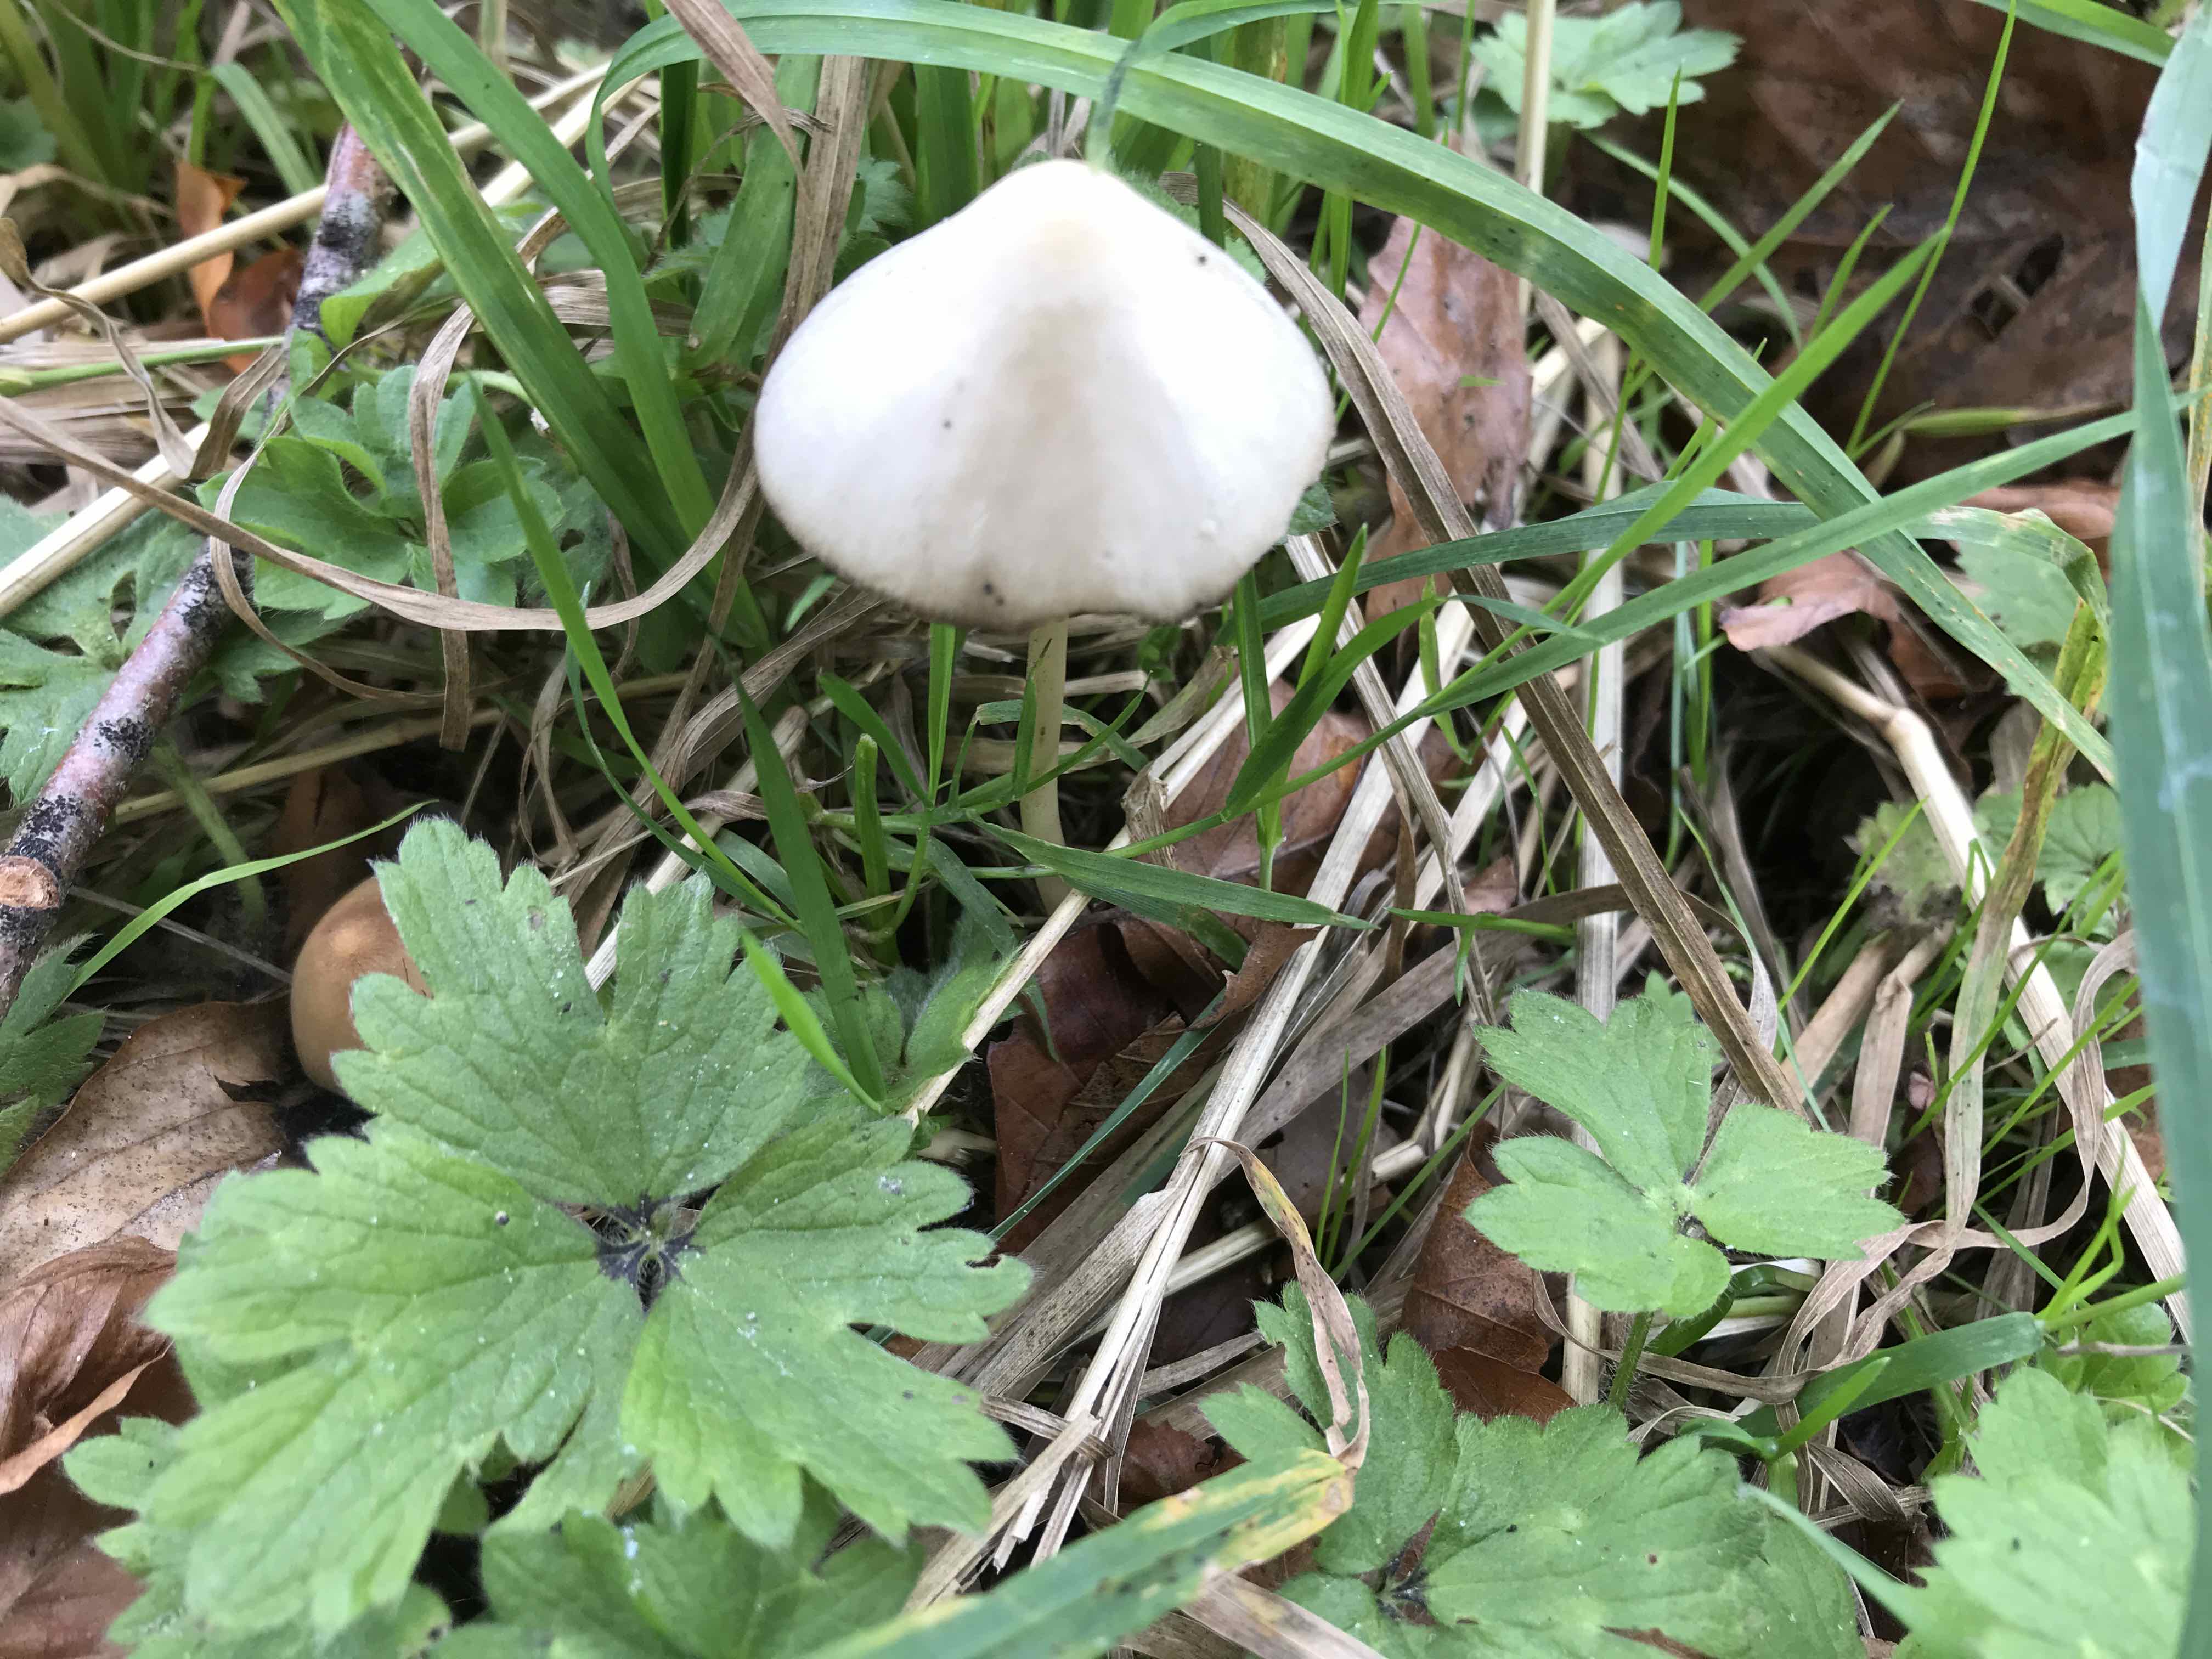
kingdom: Fungi
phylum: Basidiomycota
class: Agaricomycetes
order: Agaricales
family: Psathyrellaceae
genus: Psathyrella
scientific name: Psathyrella
